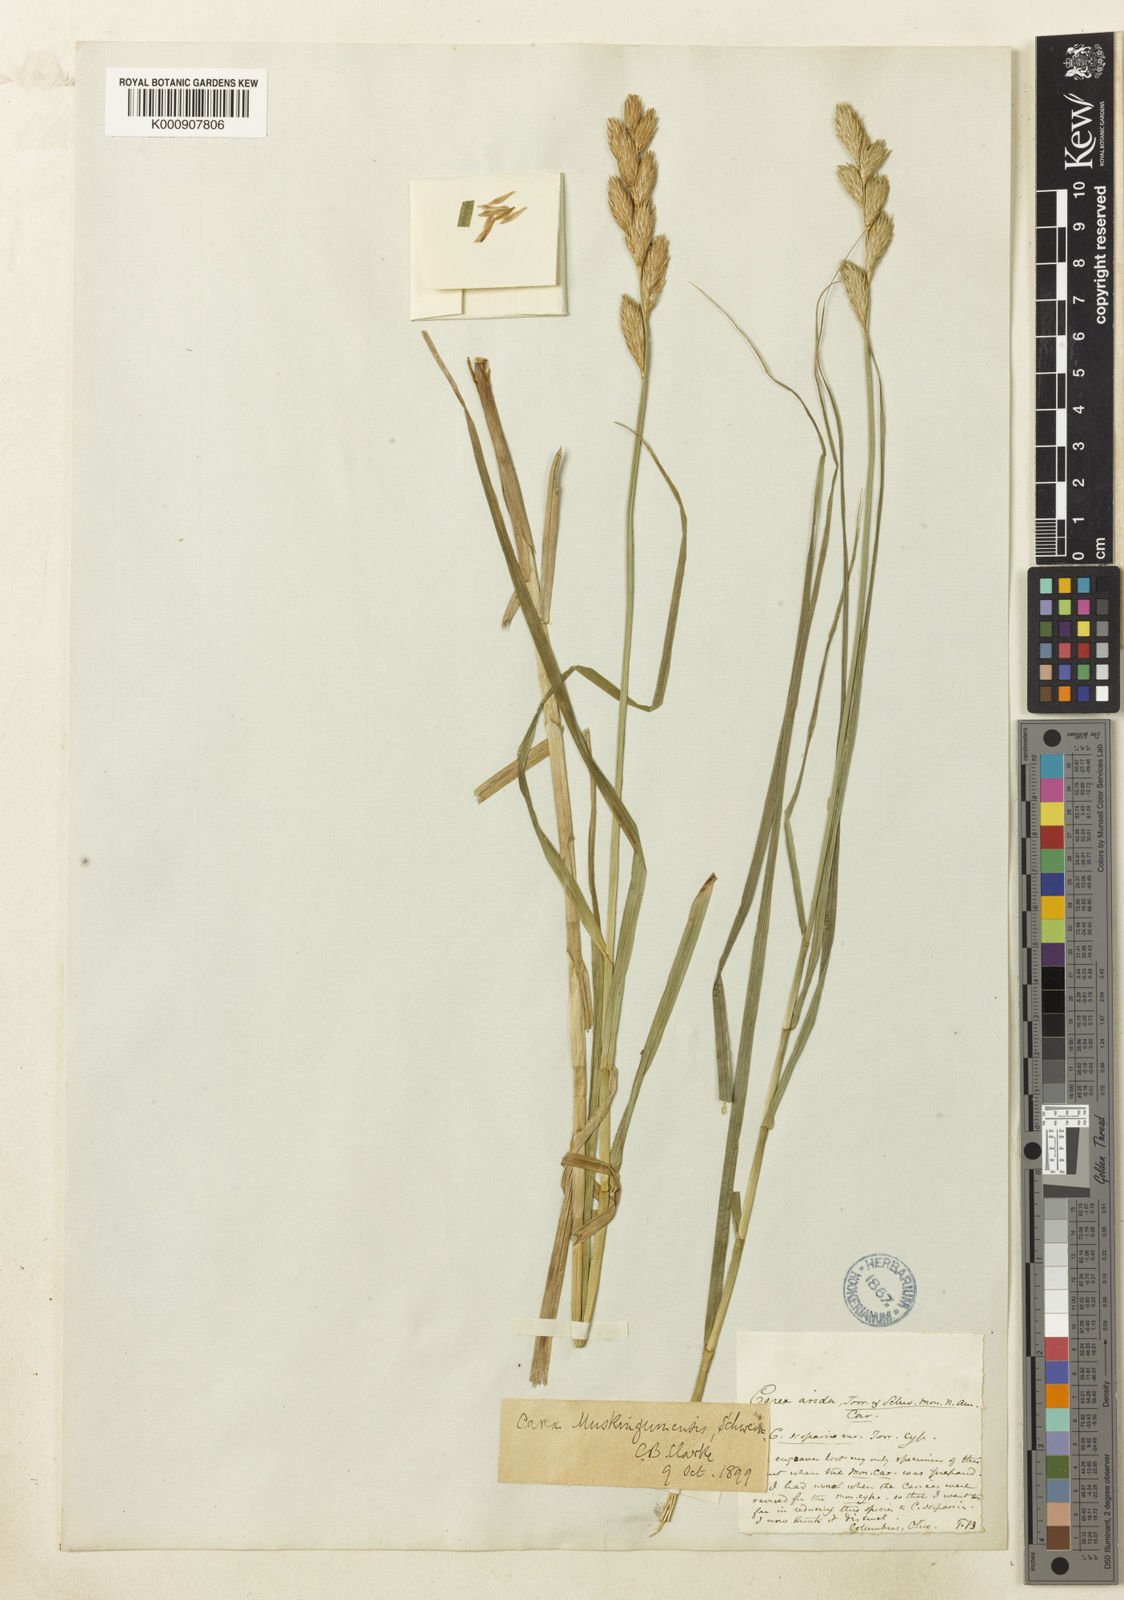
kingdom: Plantae
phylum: Tracheophyta
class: Liliopsida
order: Poales
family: Cyperaceae
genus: Carex
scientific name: Carex muskingumensis
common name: Muskingum sedge
